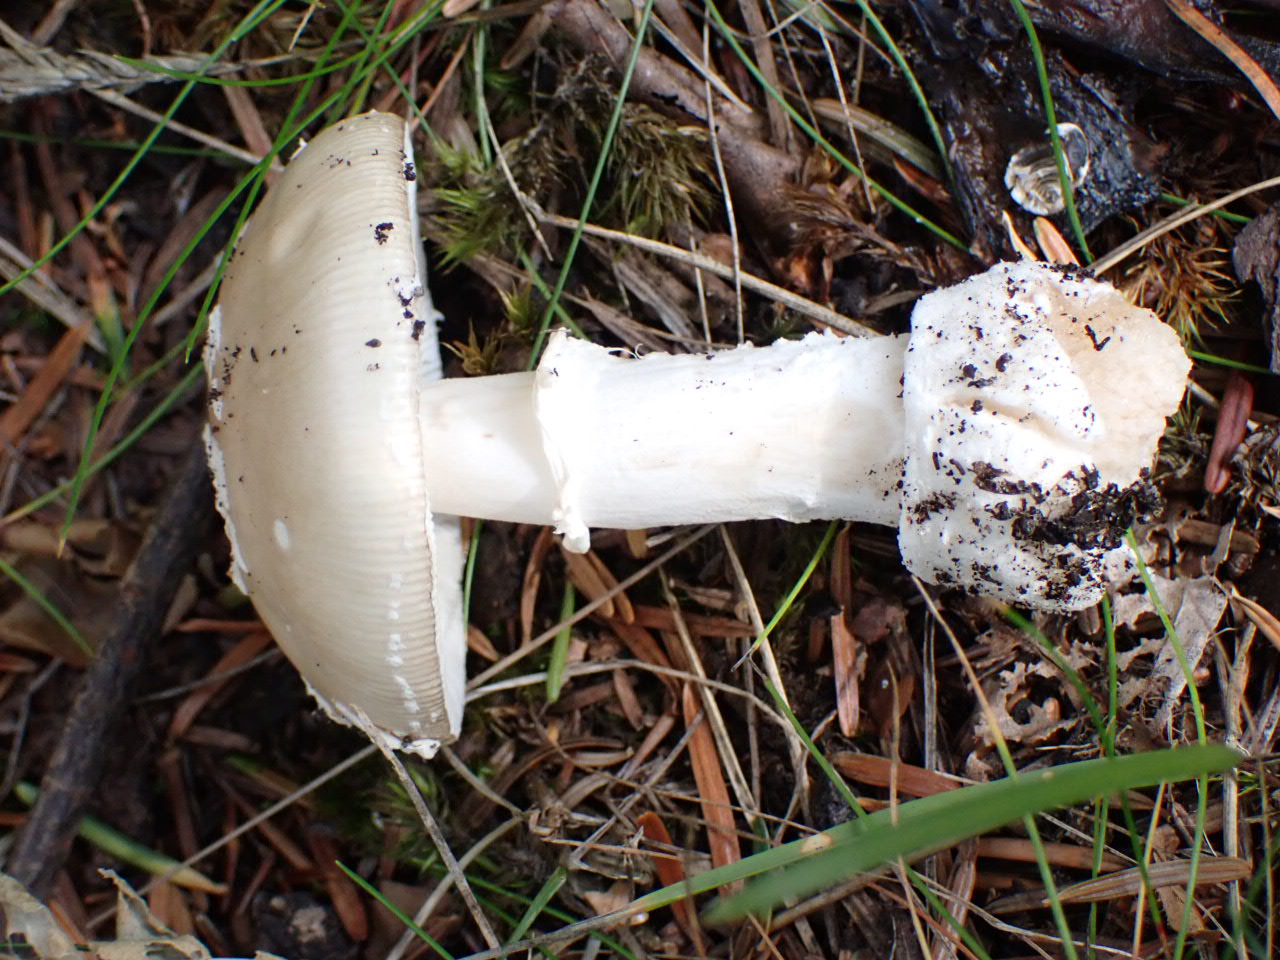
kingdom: Fungi
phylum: Basidiomycota
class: Agaricomycetes
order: Agaricales
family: Amanitaceae
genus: Amanita
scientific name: Amanita pantherina
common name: panter-fluesvamp
